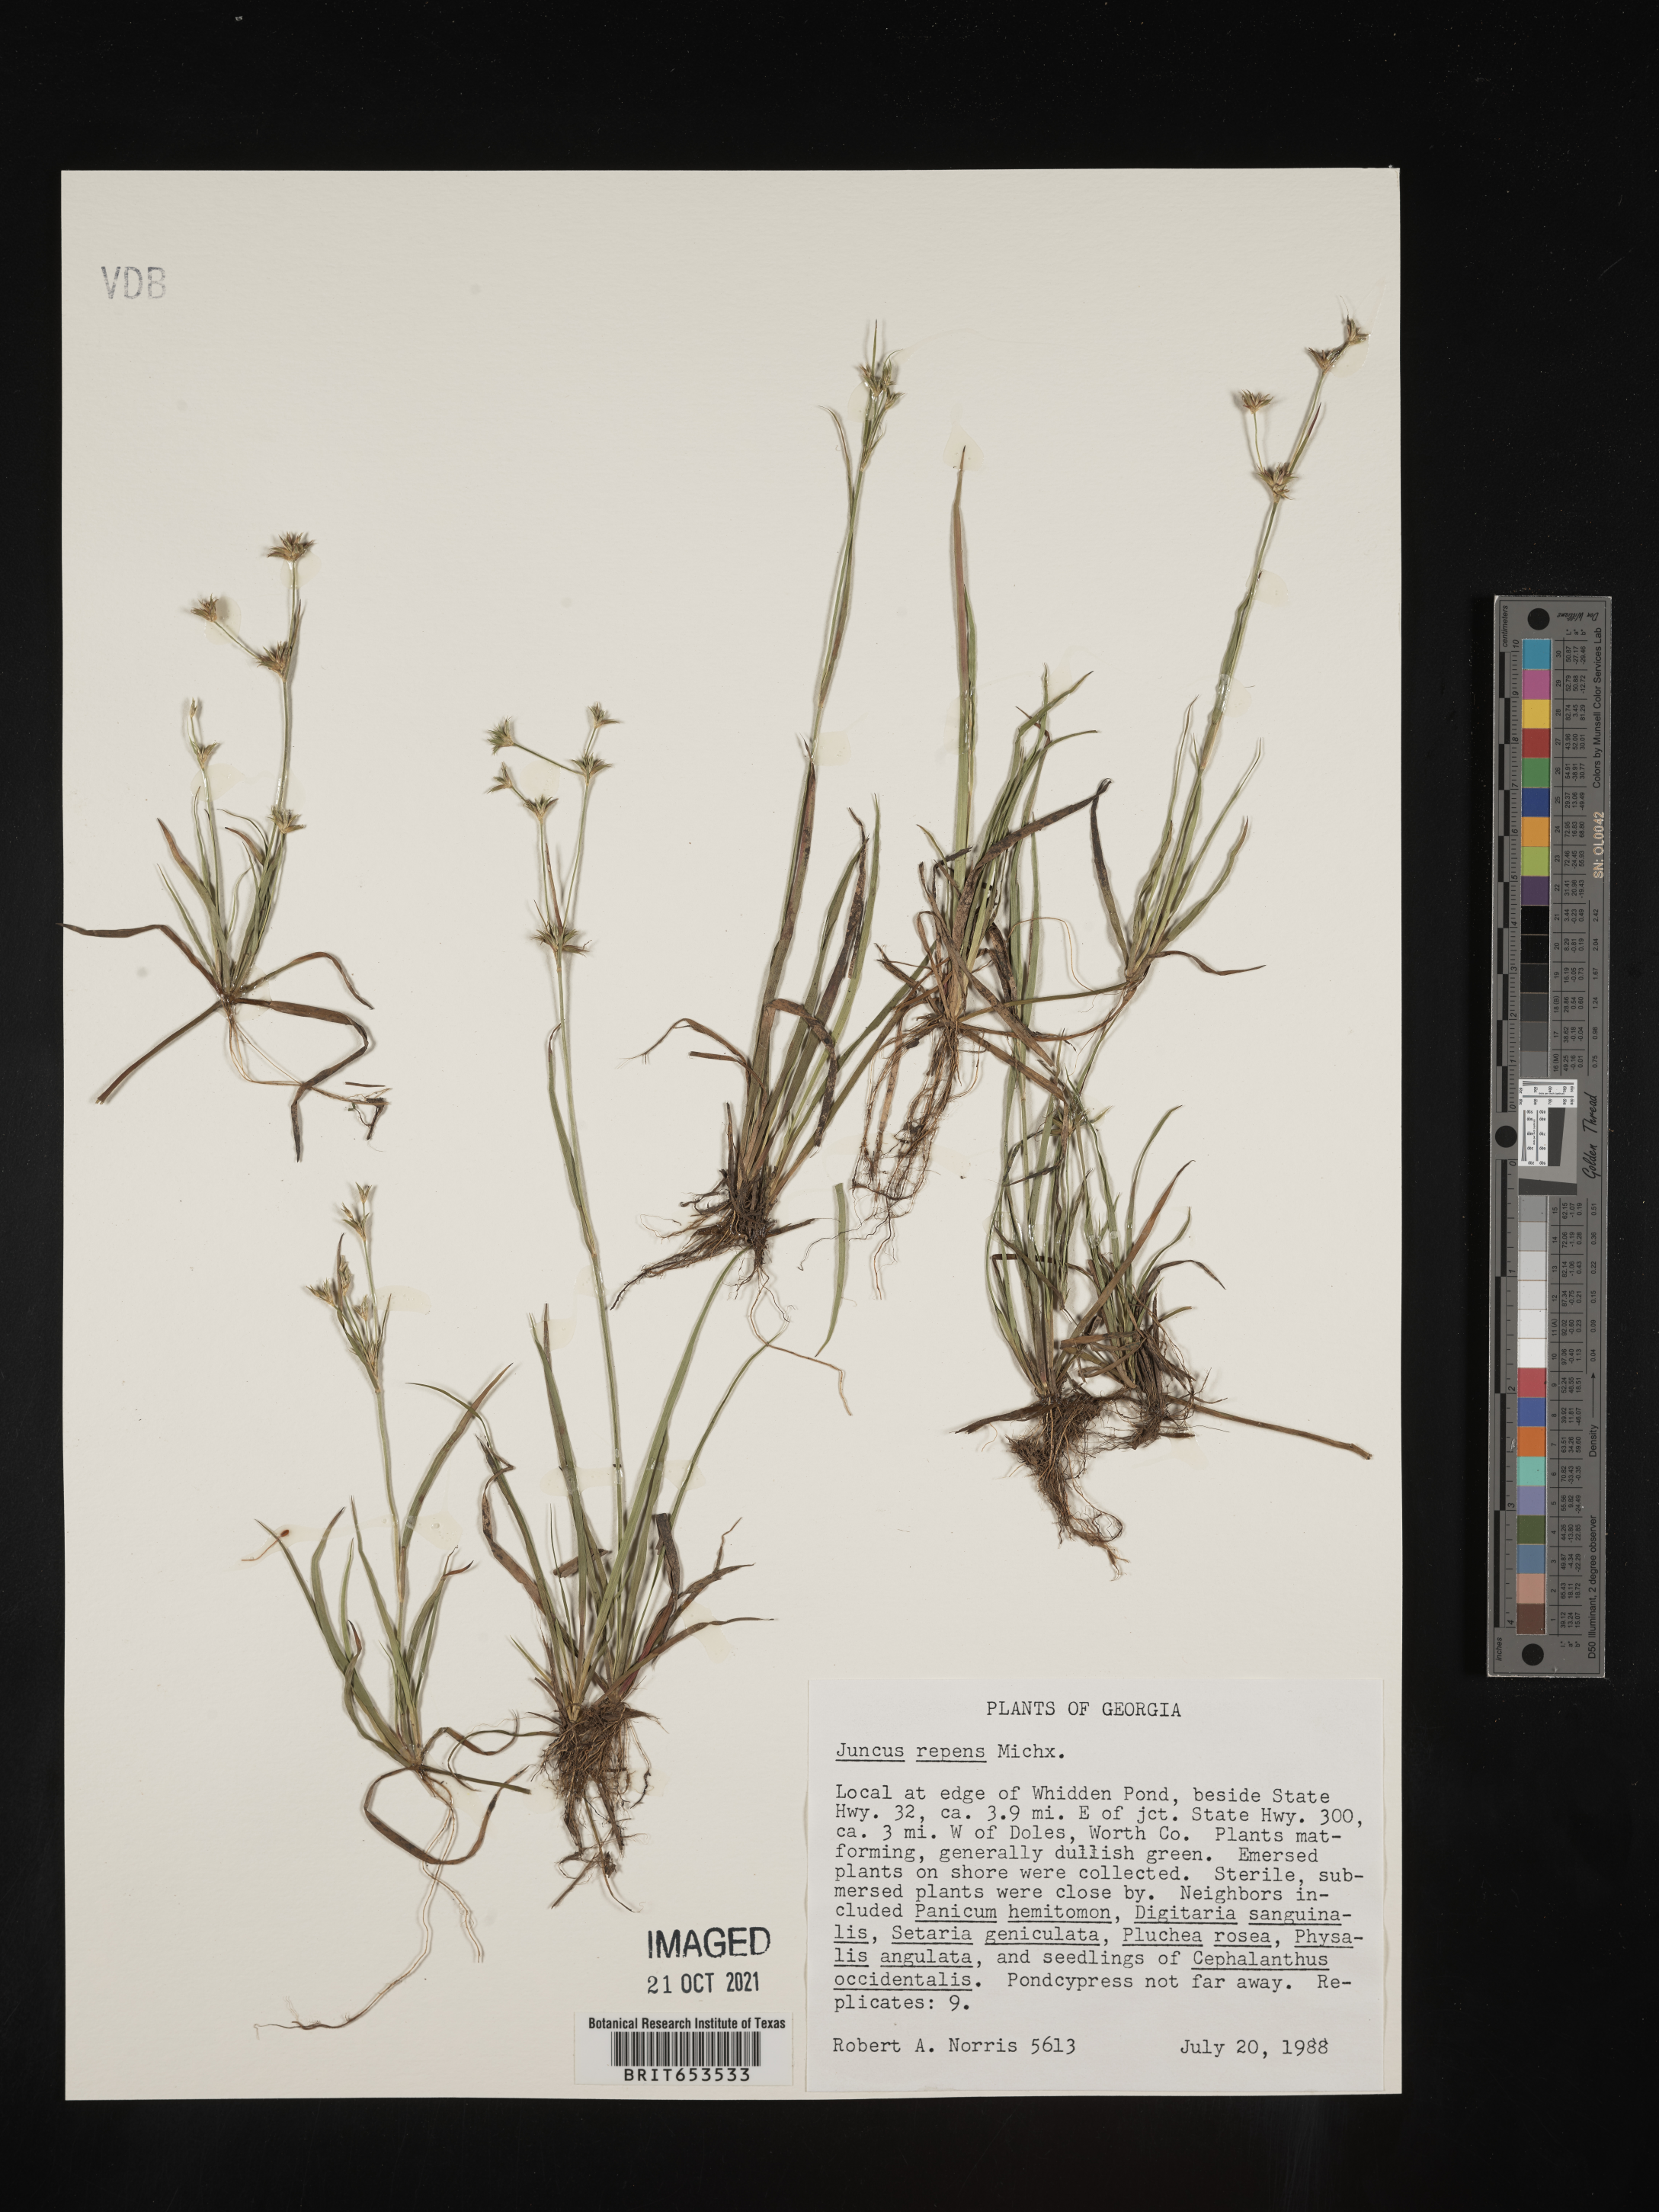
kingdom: Plantae
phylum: Tracheophyta
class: Liliopsida
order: Poales
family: Juncaceae
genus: Juncus
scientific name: Juncus repens
